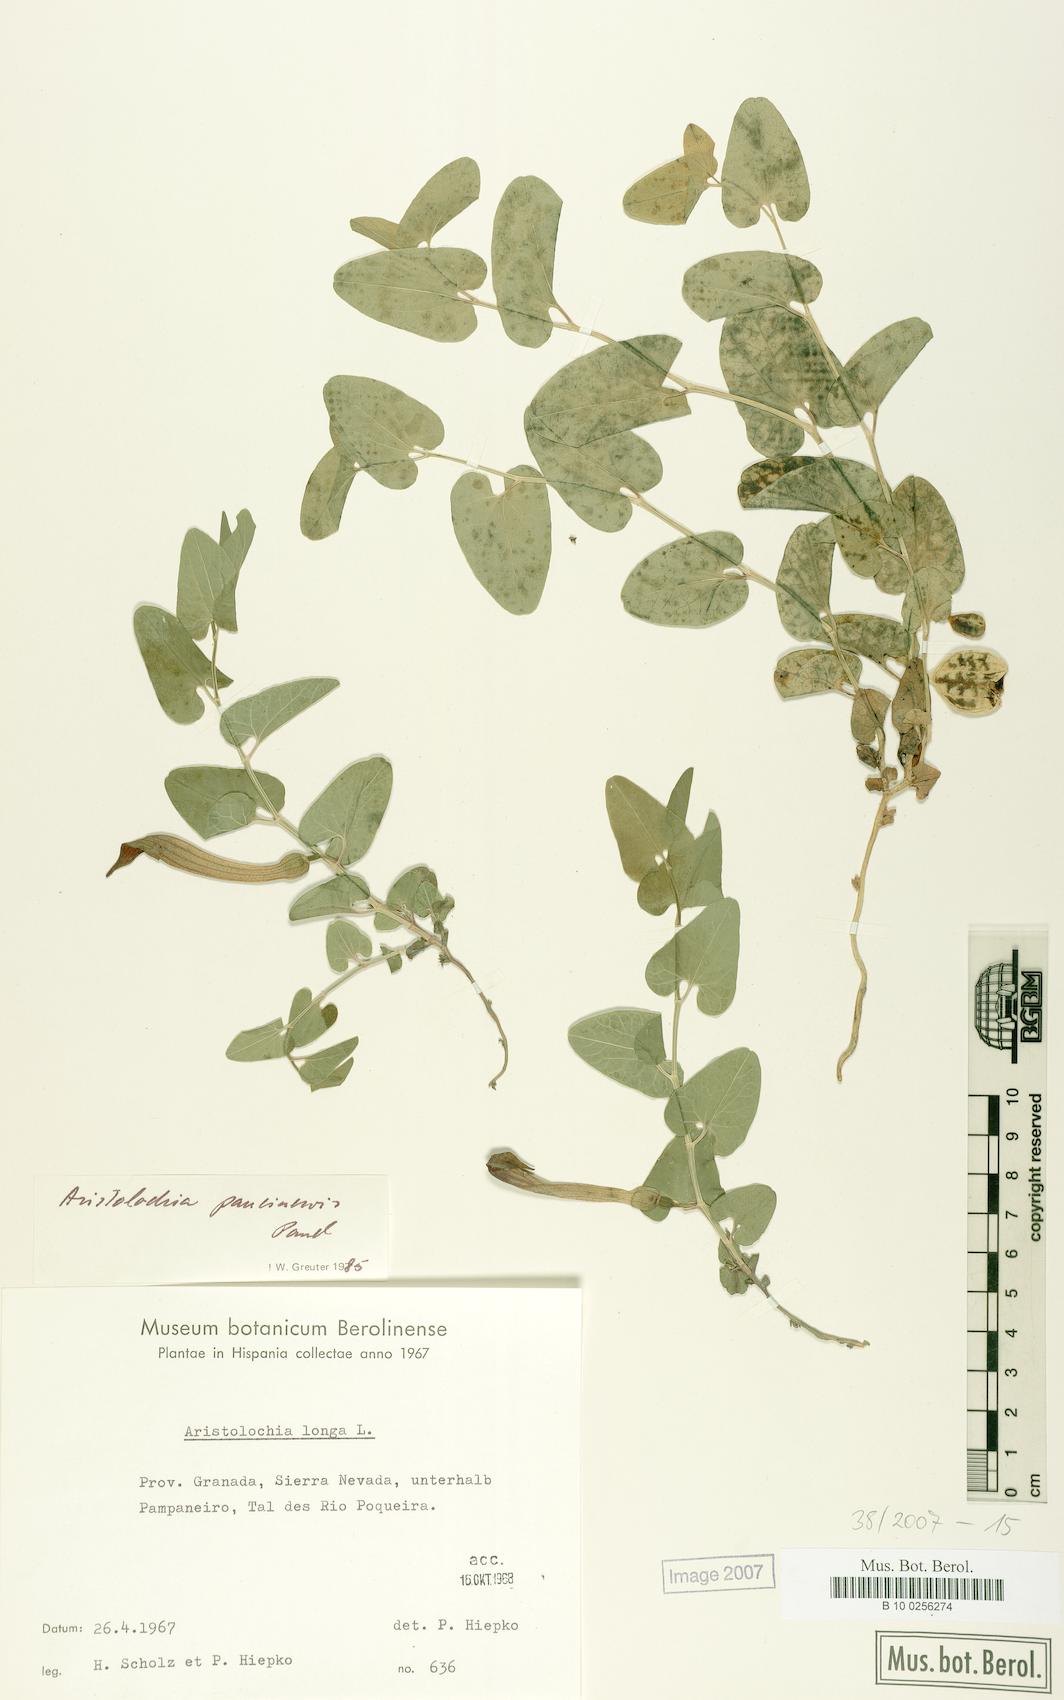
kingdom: Plantae
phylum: Tracheophyta
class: Magnoliopsida
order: Piperales
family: Aristolochiaceae
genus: Aristolochia
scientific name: Aristolochia paucinervis
